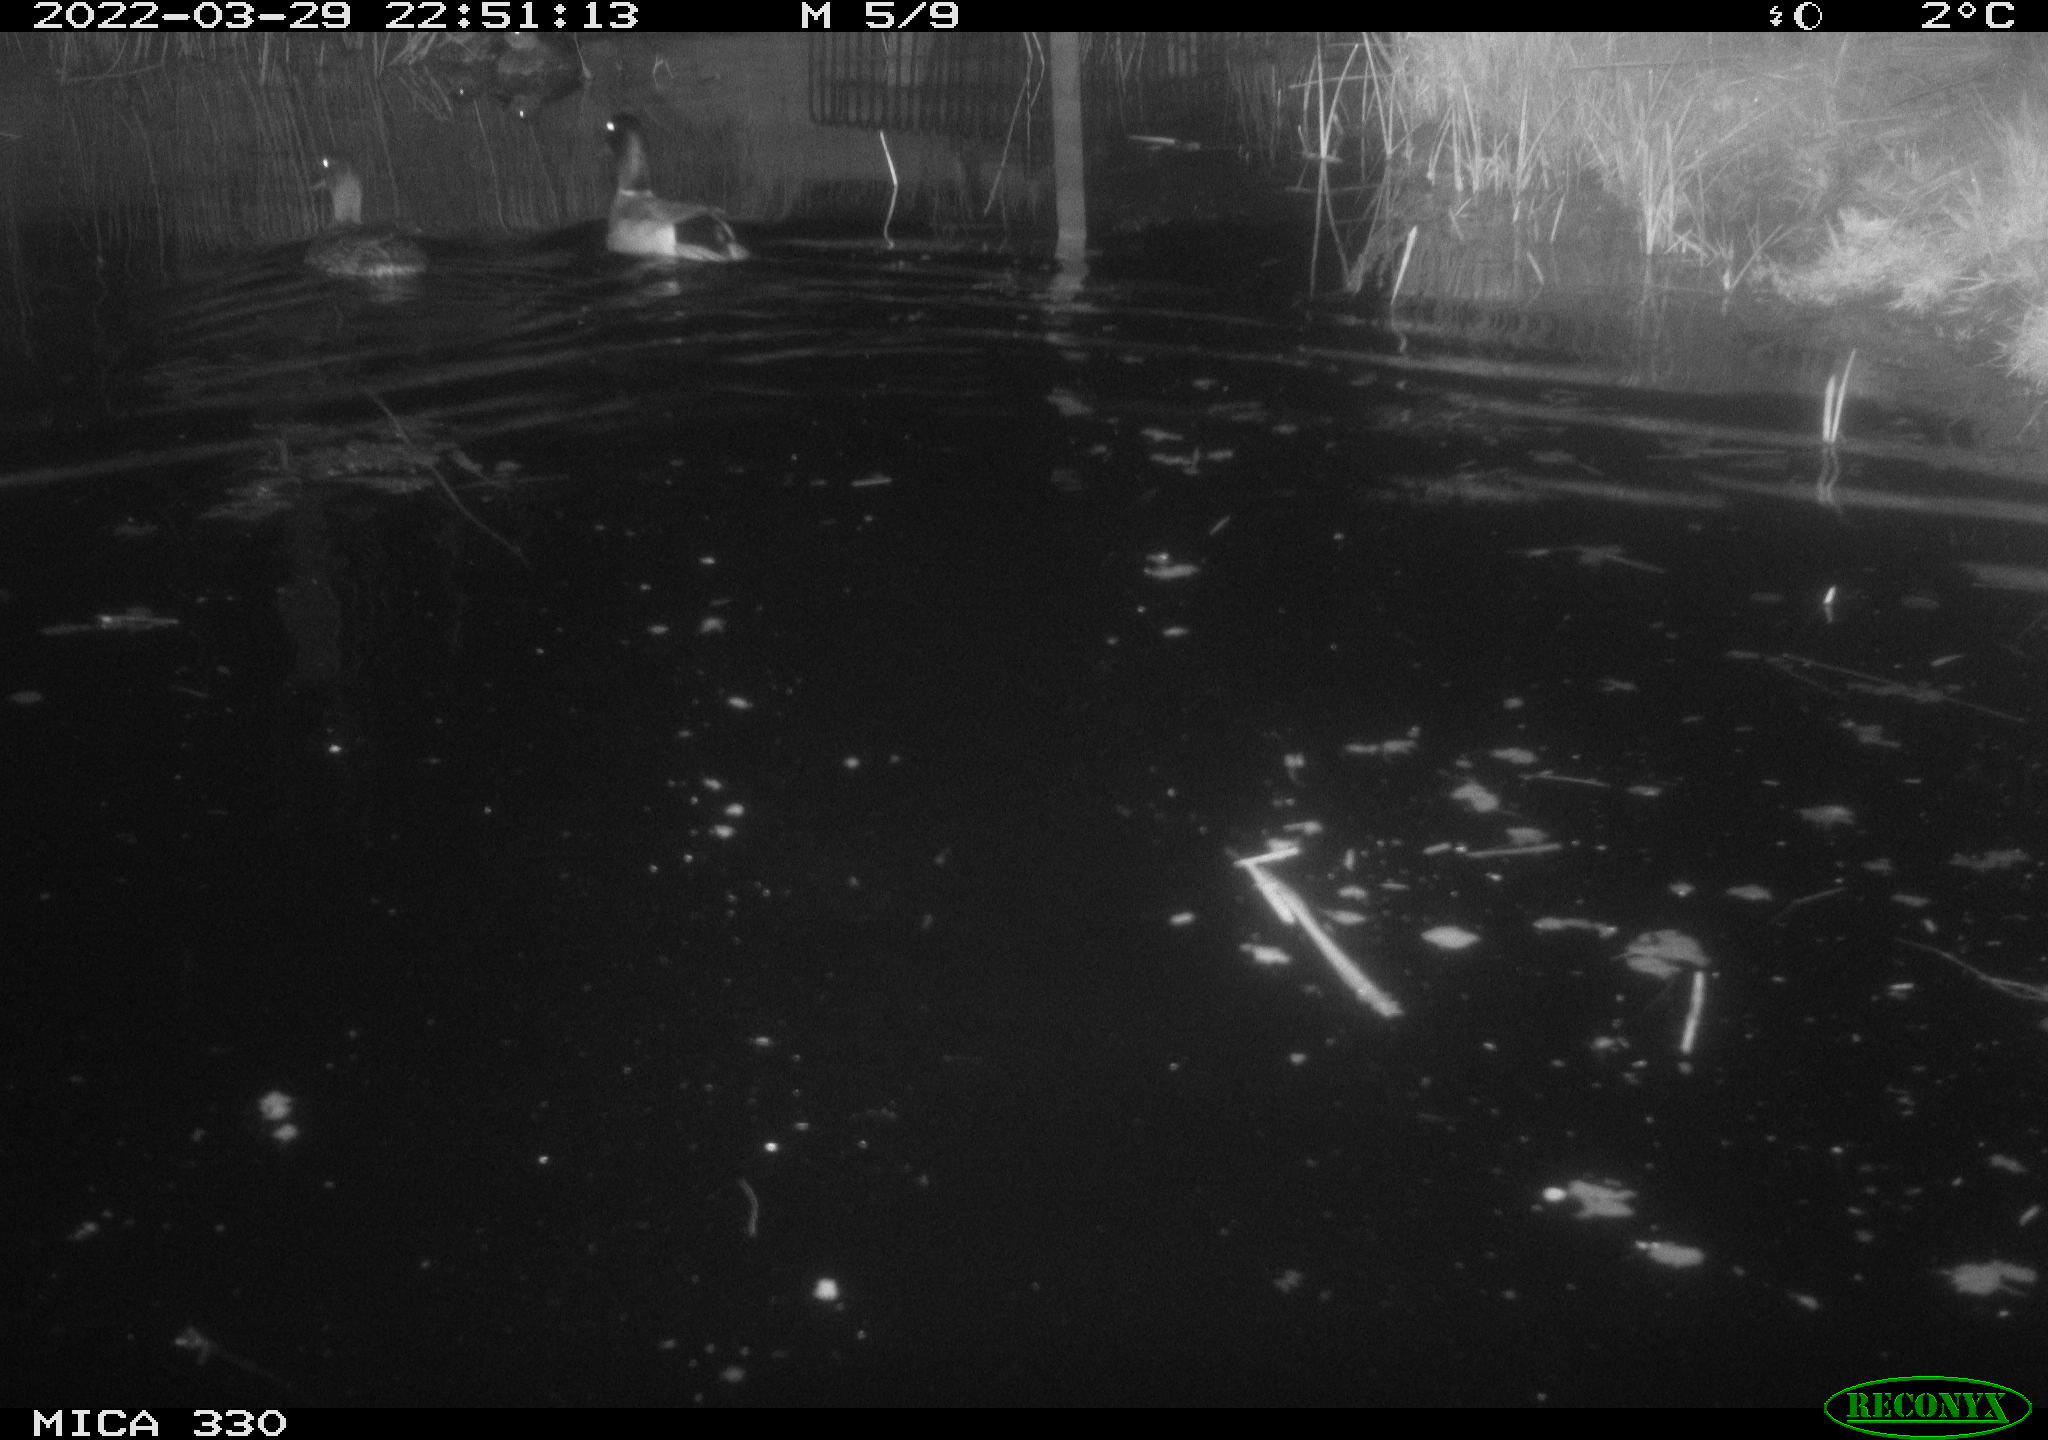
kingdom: Animalia
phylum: Chordata
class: Aves
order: Anseriformes
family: Anatidae
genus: Anas
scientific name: Anas platyrhynchos
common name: Mallard
